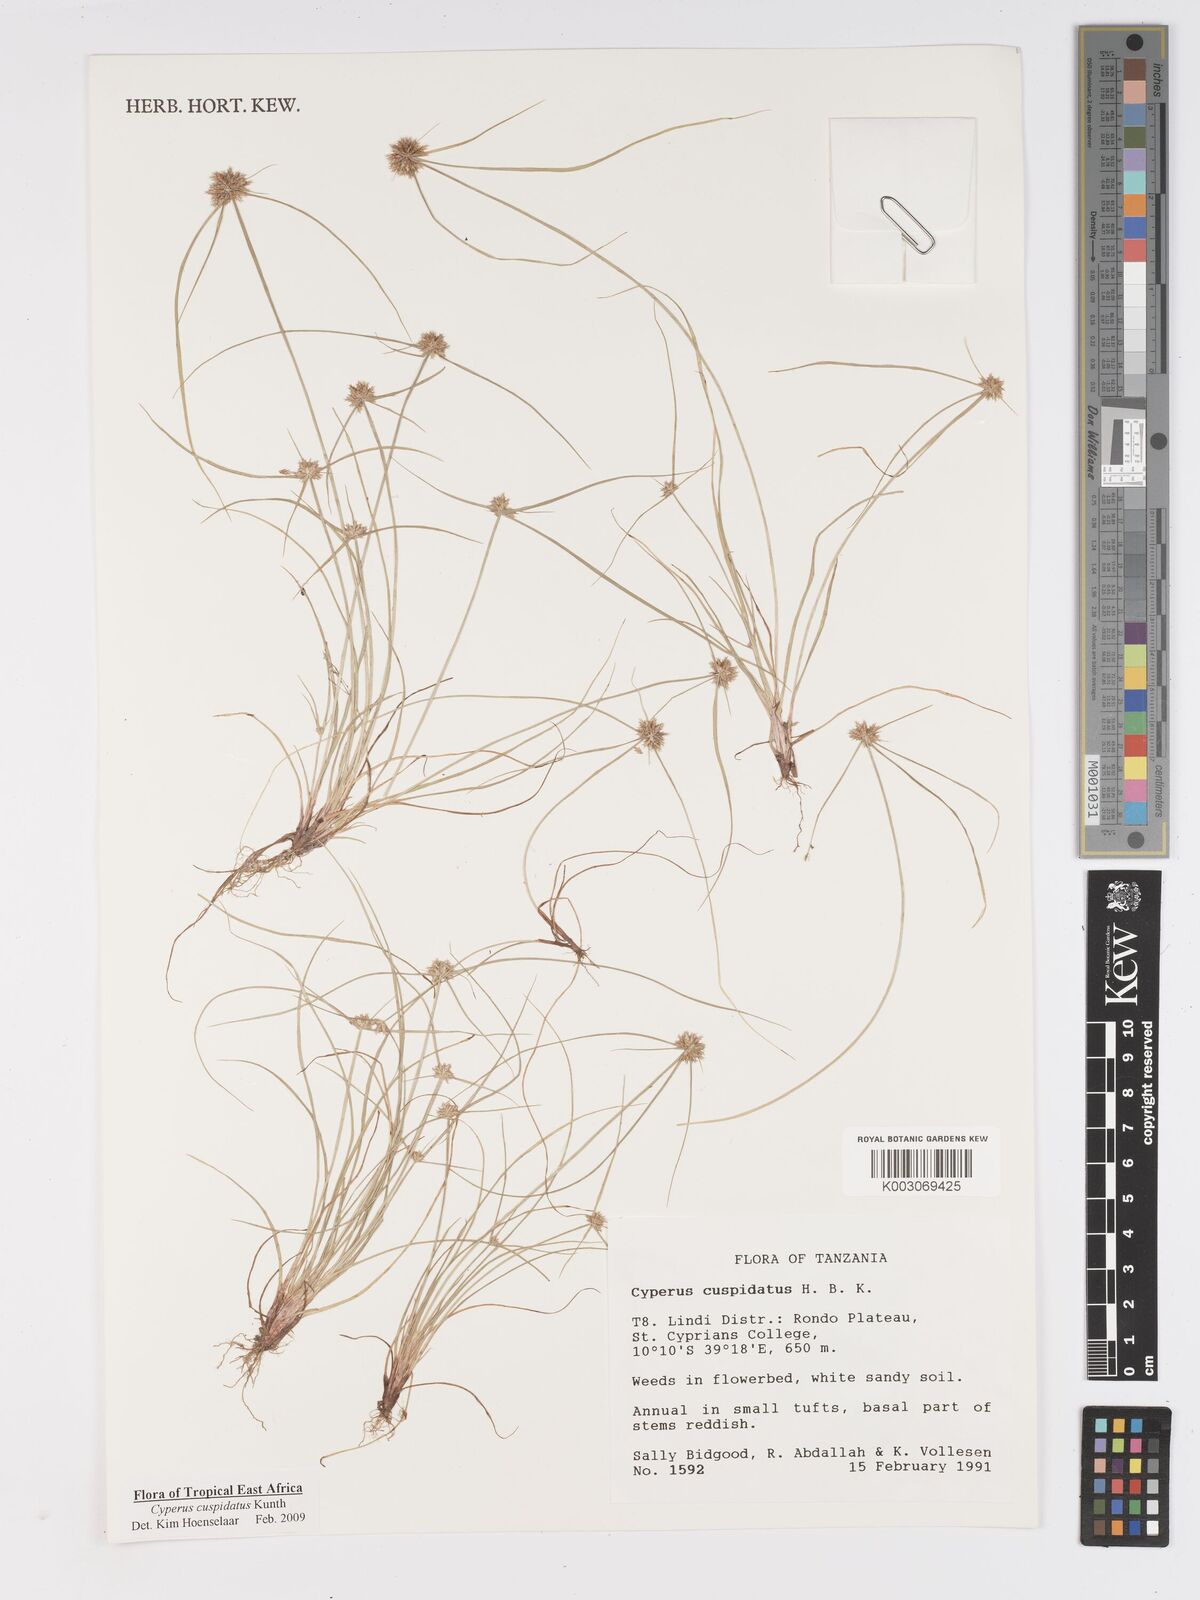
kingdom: Plantae
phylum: Tracheophyta
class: Liliopsida
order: Poales
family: Cyperaceae
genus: Cyperus
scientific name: Cyperus cuspidatus
